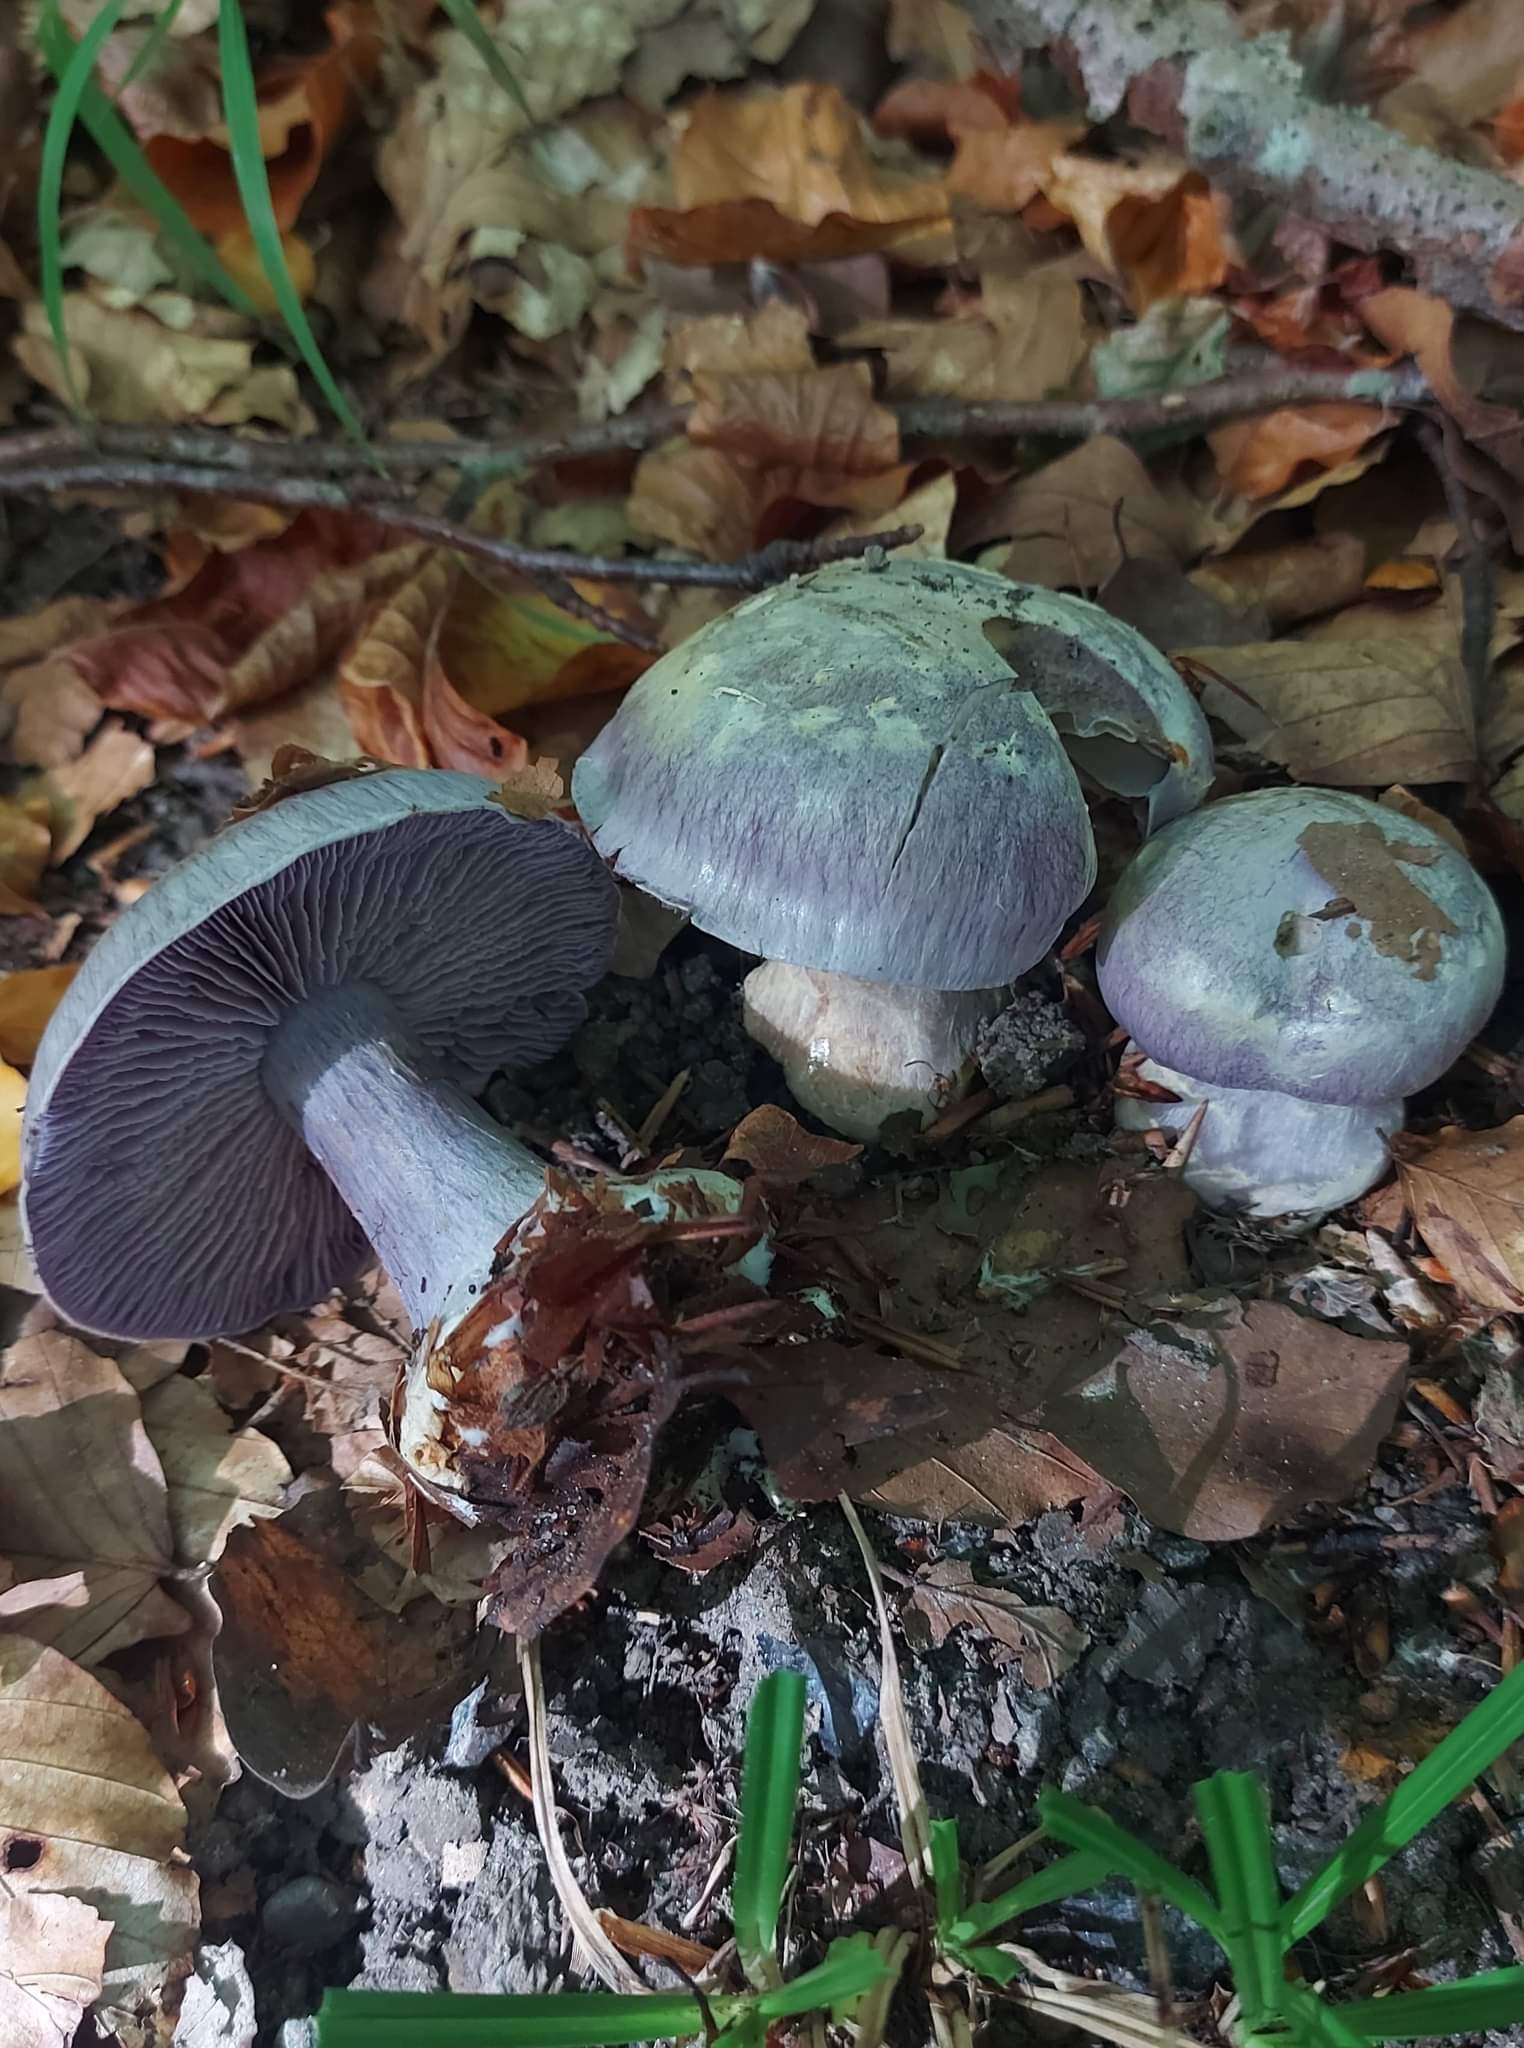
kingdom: Fungi
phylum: Basidiomycota
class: Agaricomycetes
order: Agaricales
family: Cortinariaceae
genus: Cortinarius
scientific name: Cortinarius caerulescens
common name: blåkødet slørhat
